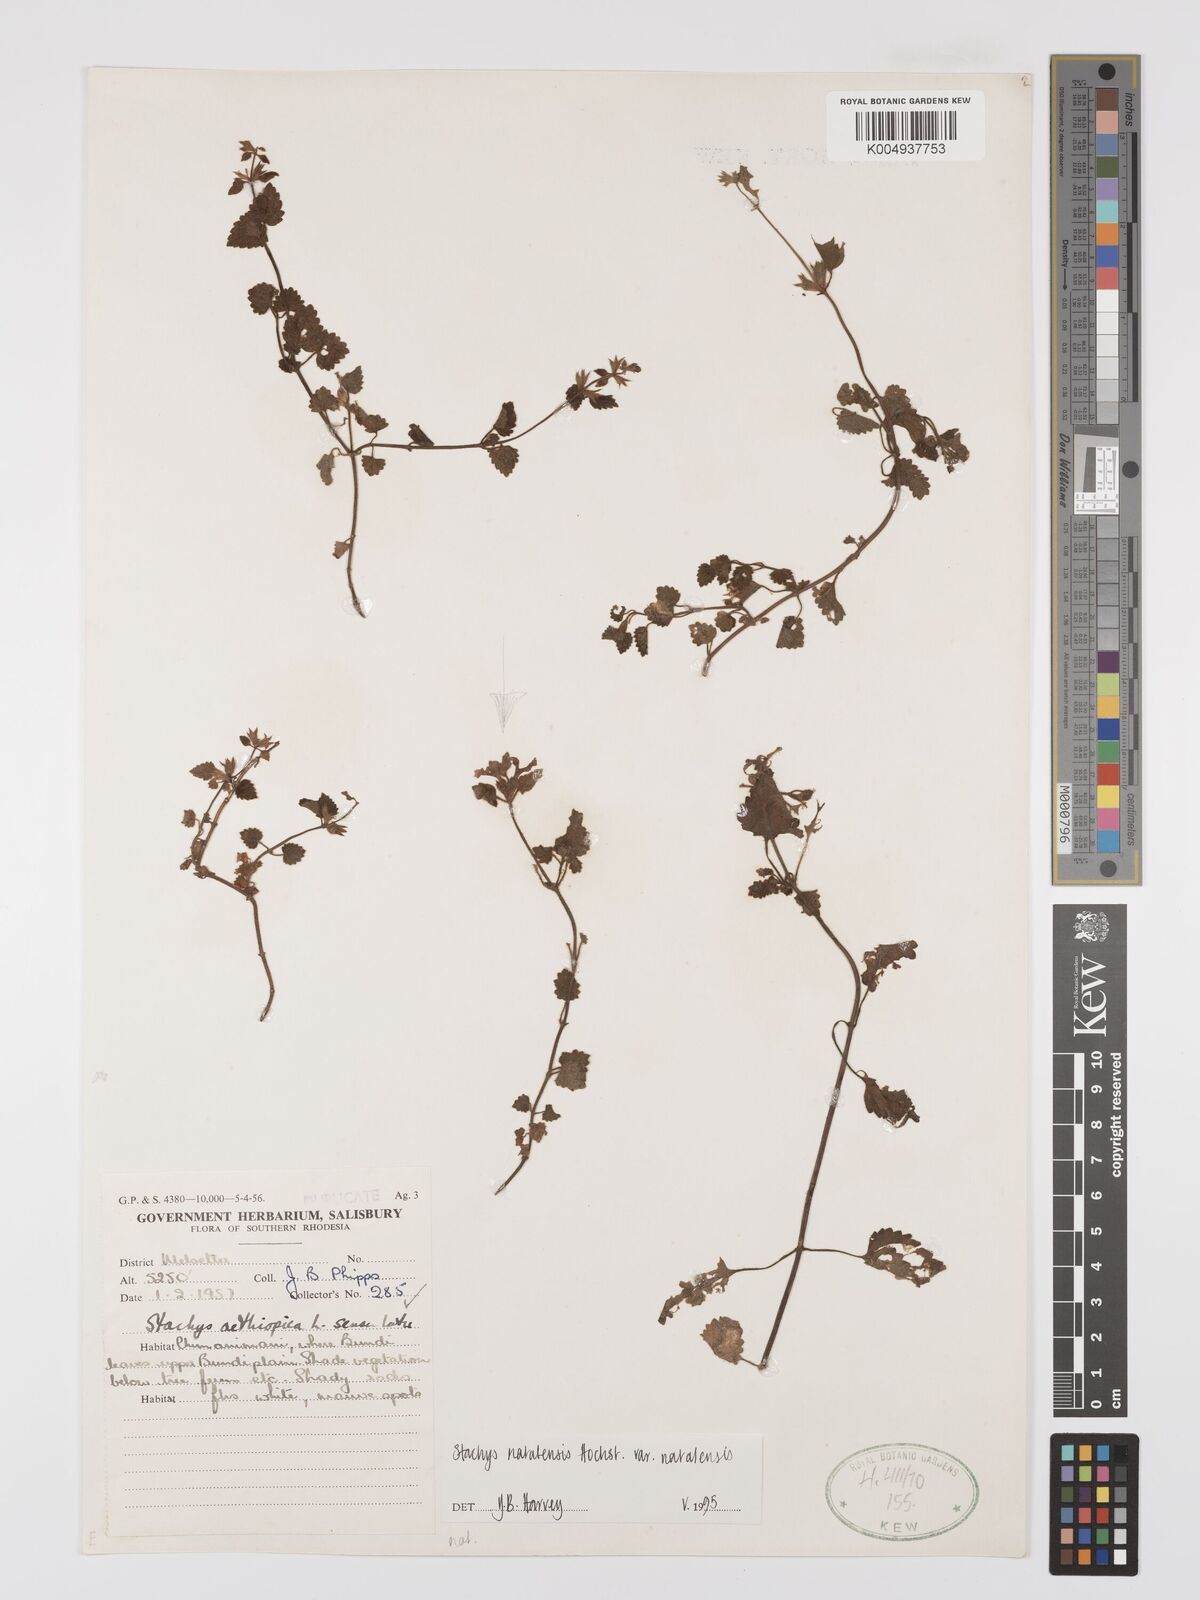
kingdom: Plantae
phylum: Tracheophyta
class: Magnoliopsida
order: Lamiales
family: Lamiaceae
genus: Stachys
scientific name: Stachys natalensis
